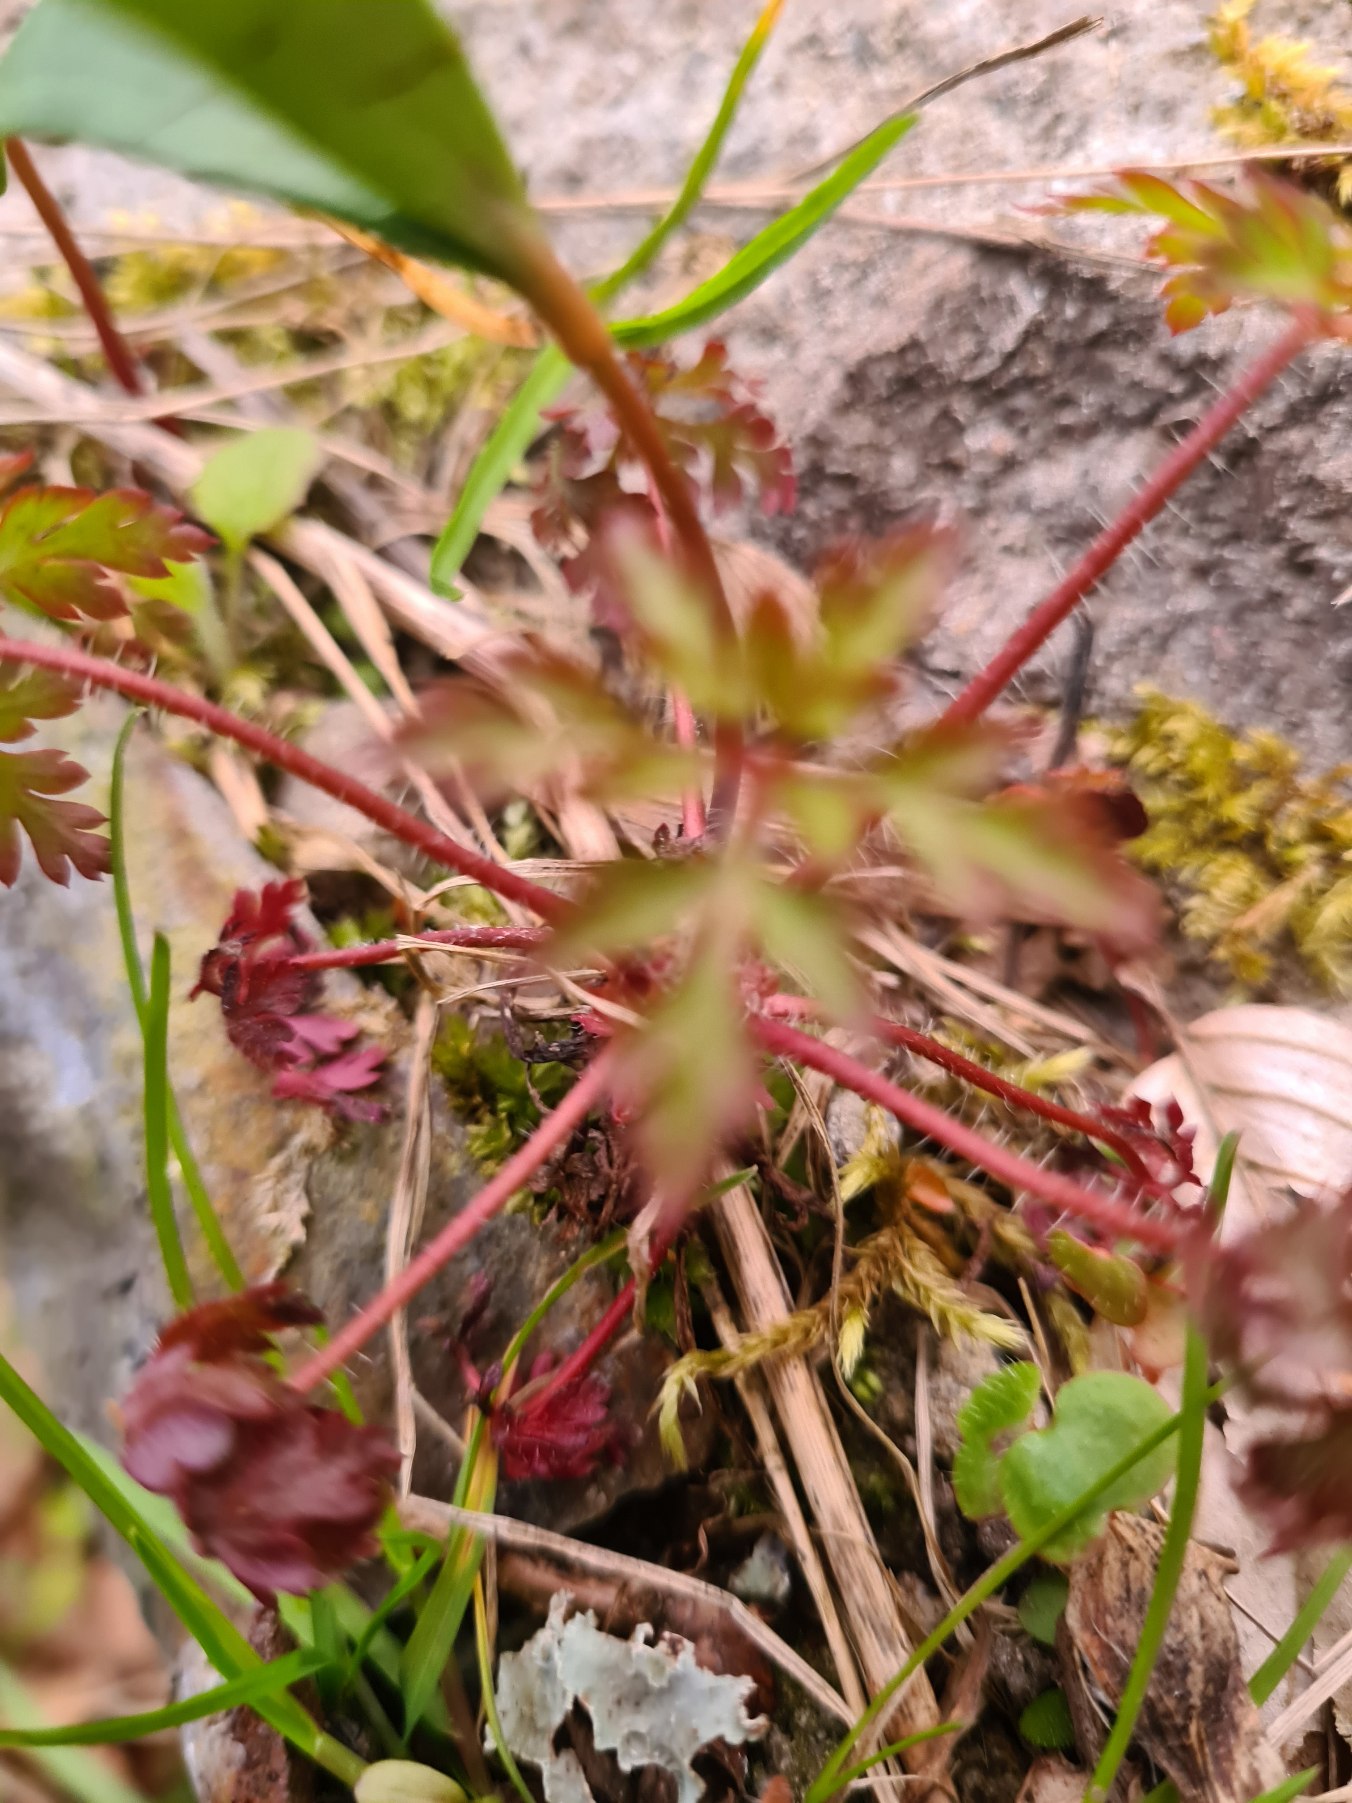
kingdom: Plantae
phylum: Tracheophyta
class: Magnoliopsida
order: Geraniales
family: Geraniaceae
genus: Geranium
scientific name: Geranium robertianum
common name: Stinkende storkenæb
